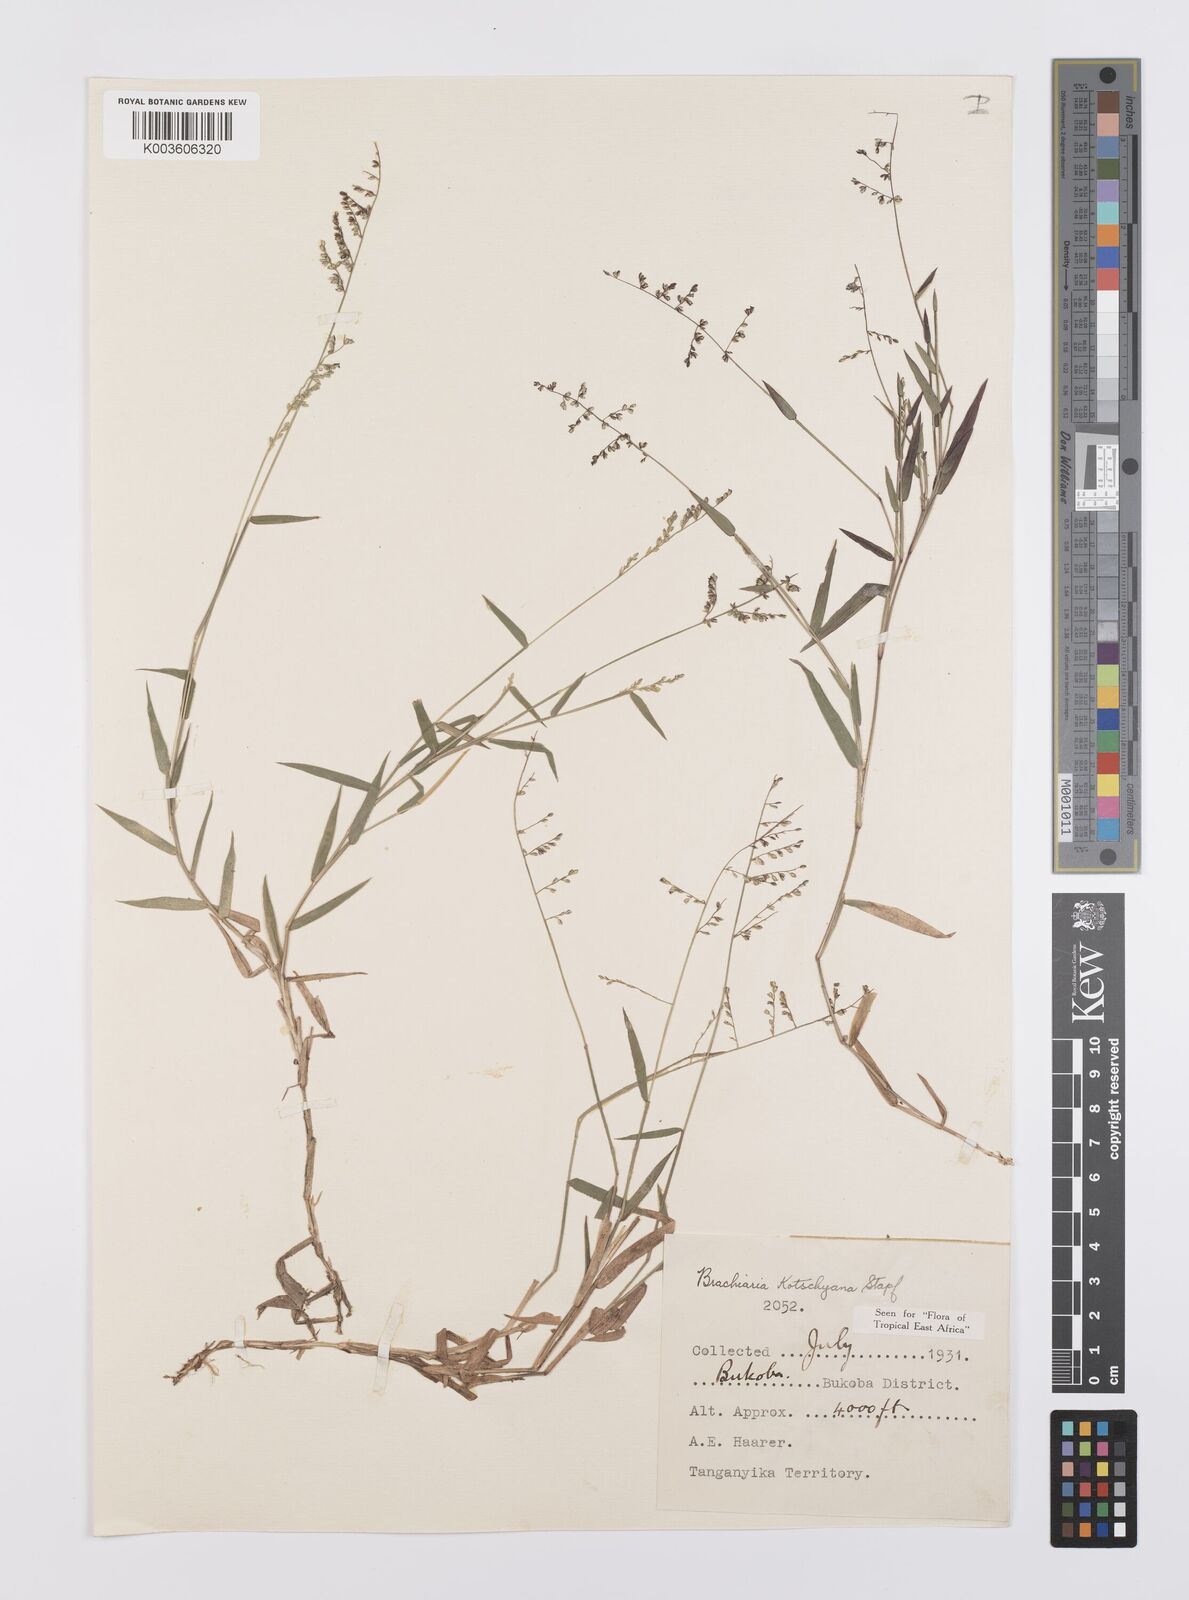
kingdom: Plantae
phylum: Tracheophyta
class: Liliopsida
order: Poales
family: Poaceae
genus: Urochloa
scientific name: Urochloa comata
